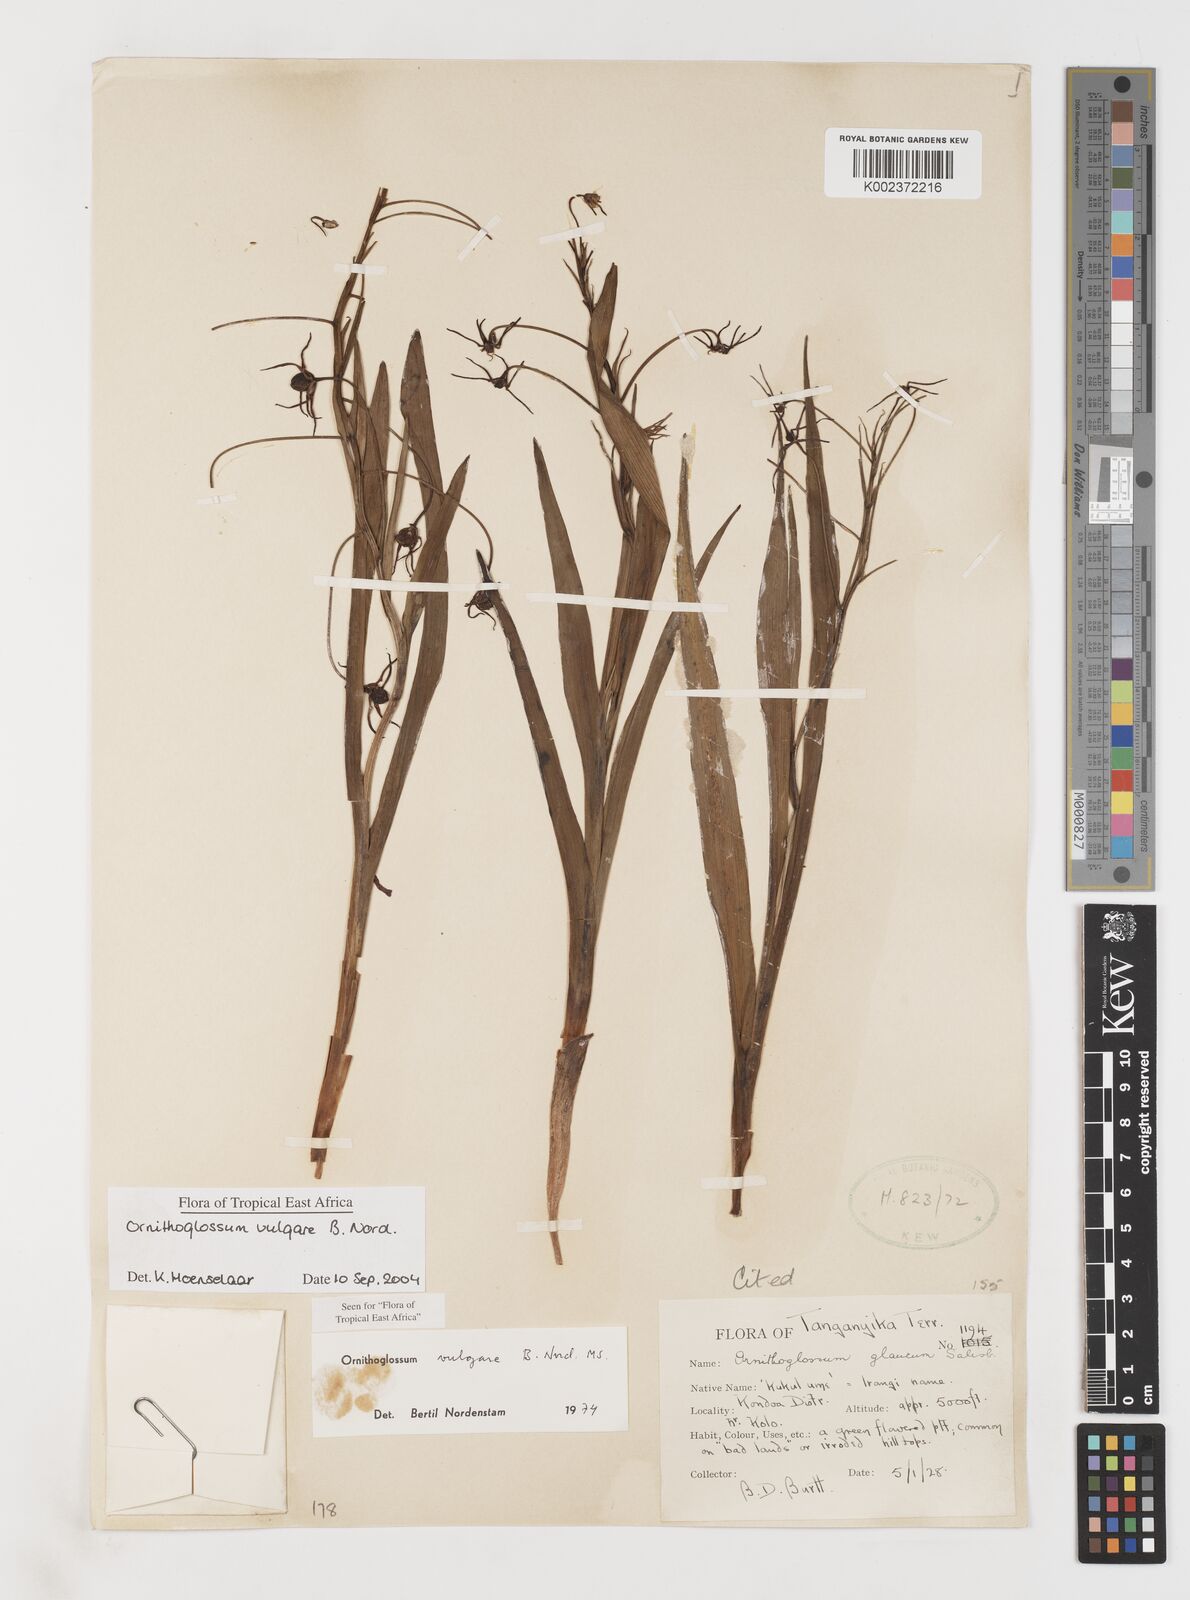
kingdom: Plantae
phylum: Tracheophyta
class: Liliopsida
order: Liliales
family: Colchicaceae
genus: Ornithoglossum
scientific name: Ornithoglossum vulgare
